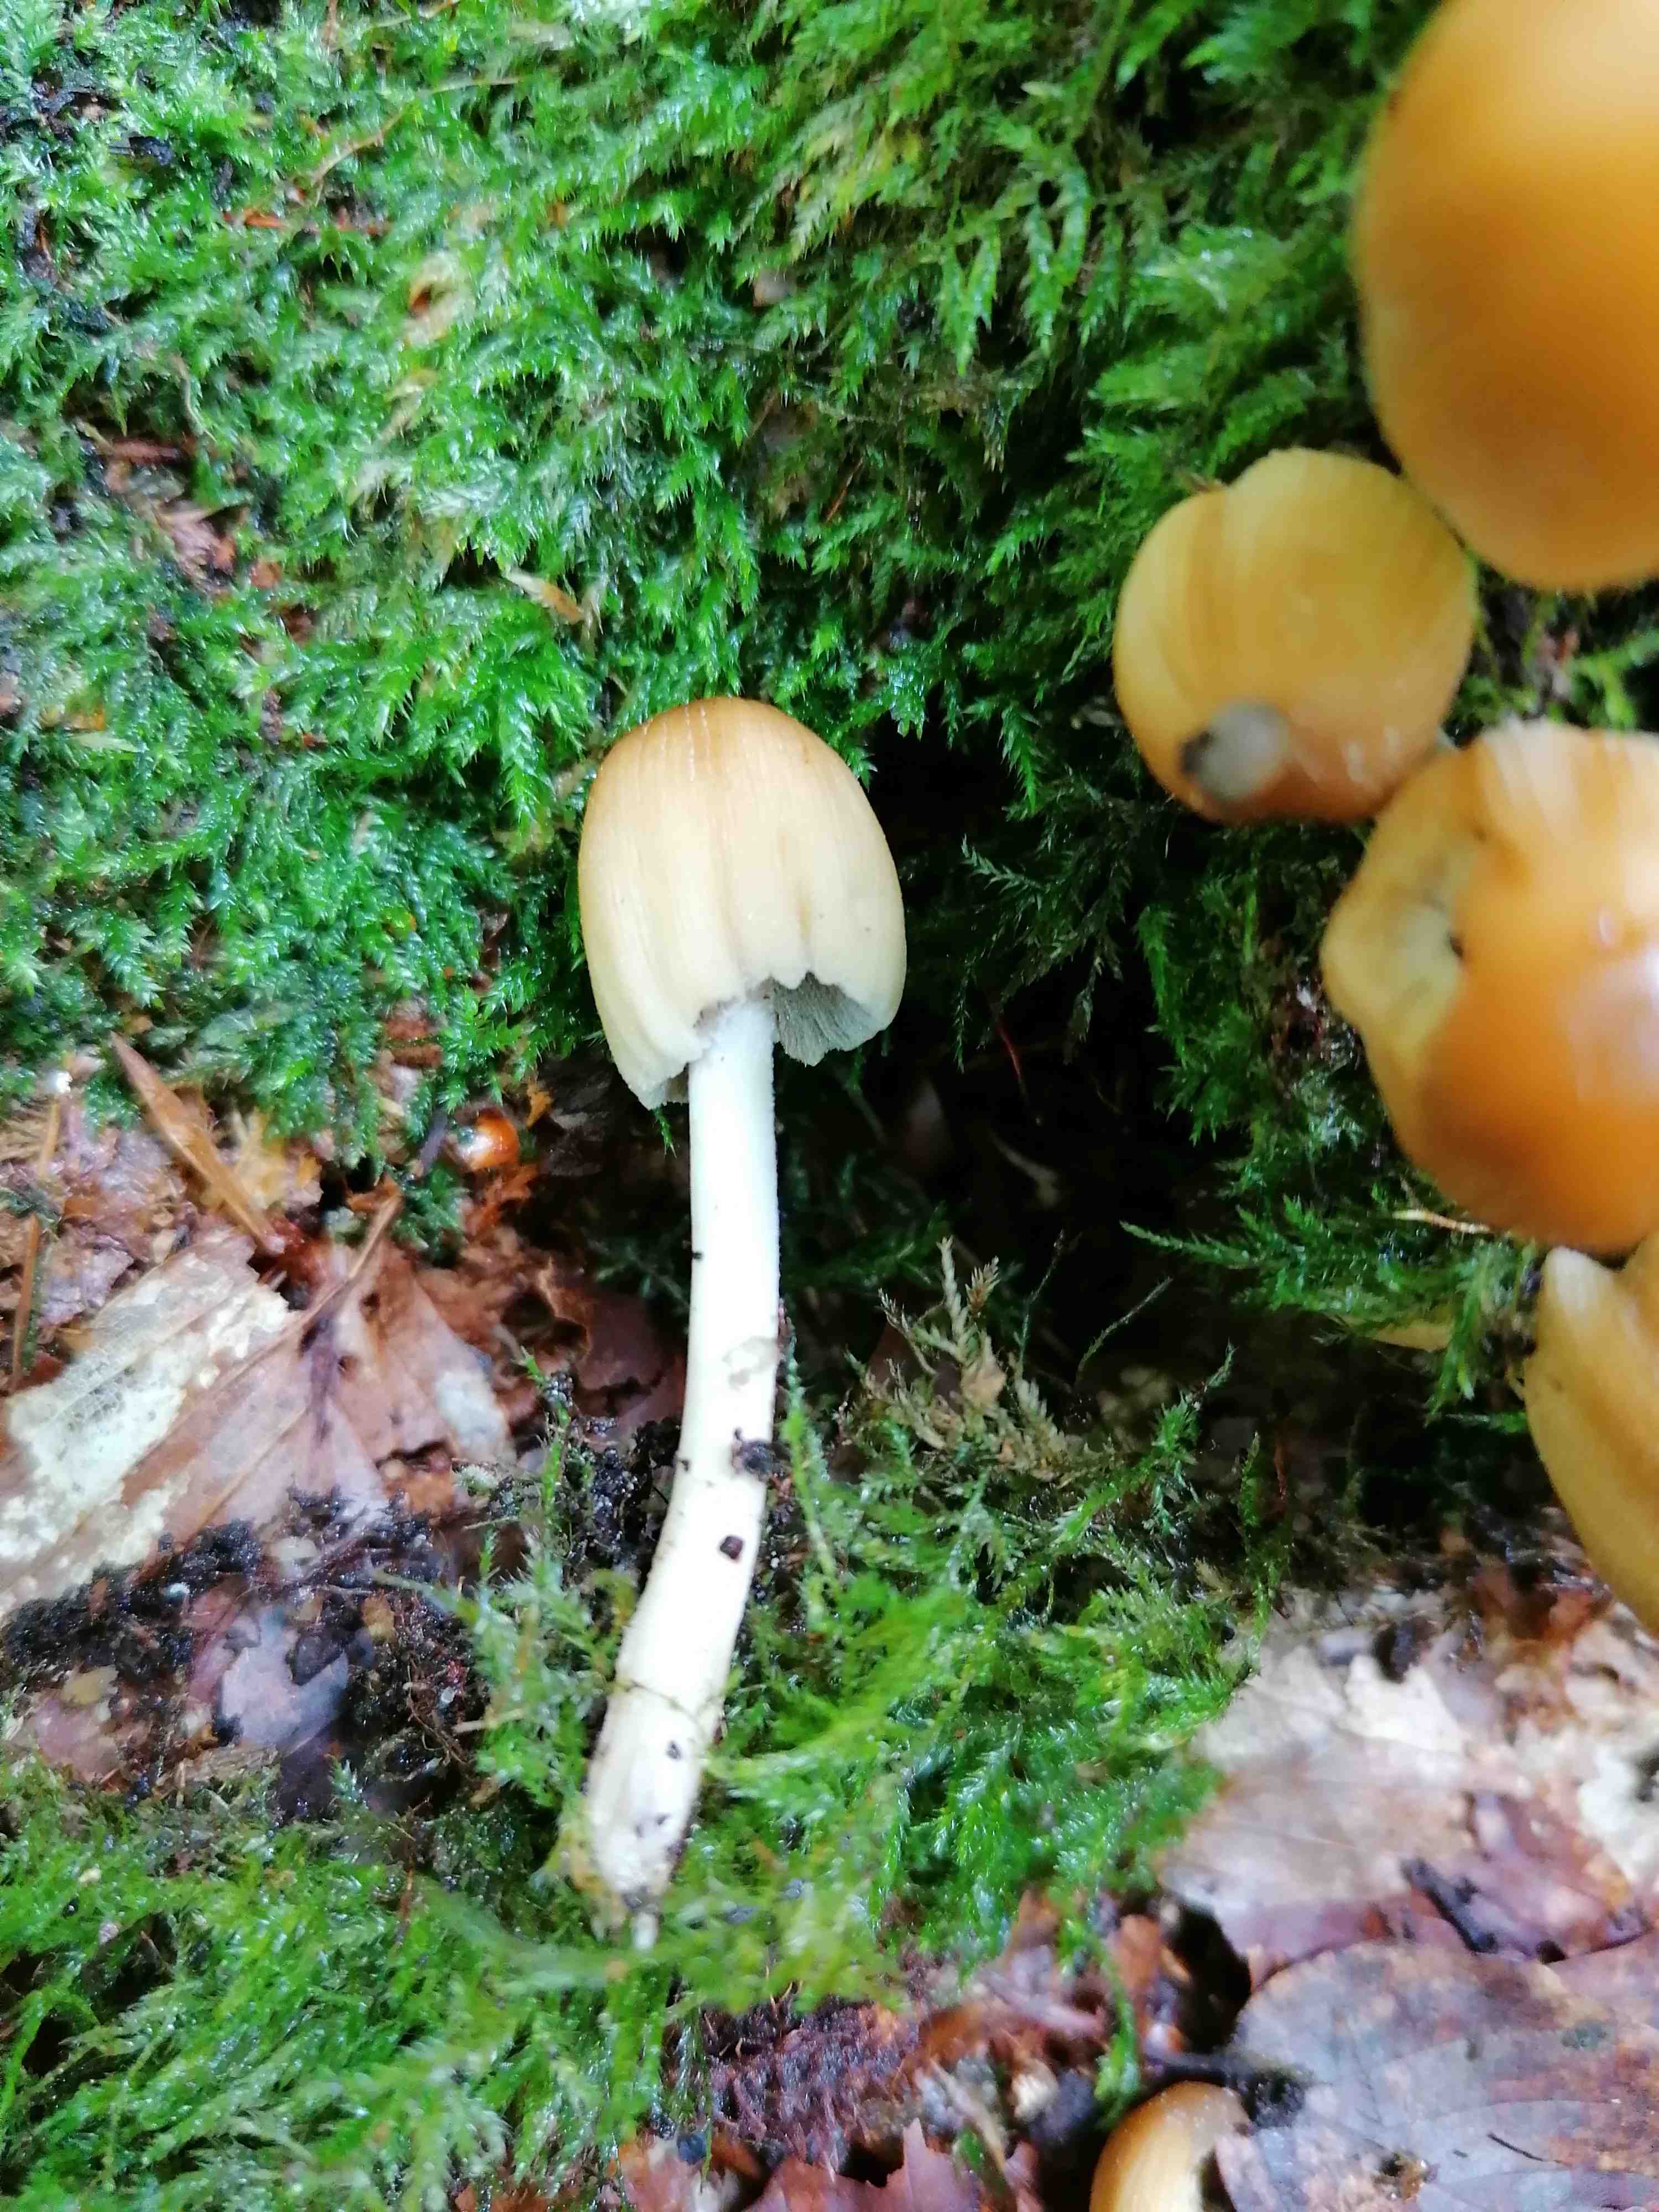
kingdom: Fungi
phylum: Basidiomycota
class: Agaricomycetes
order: Agaricales
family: Psathyrellaceae
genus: Coprinellus
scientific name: Coprinellus micaceus
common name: glimmer-blækhat
